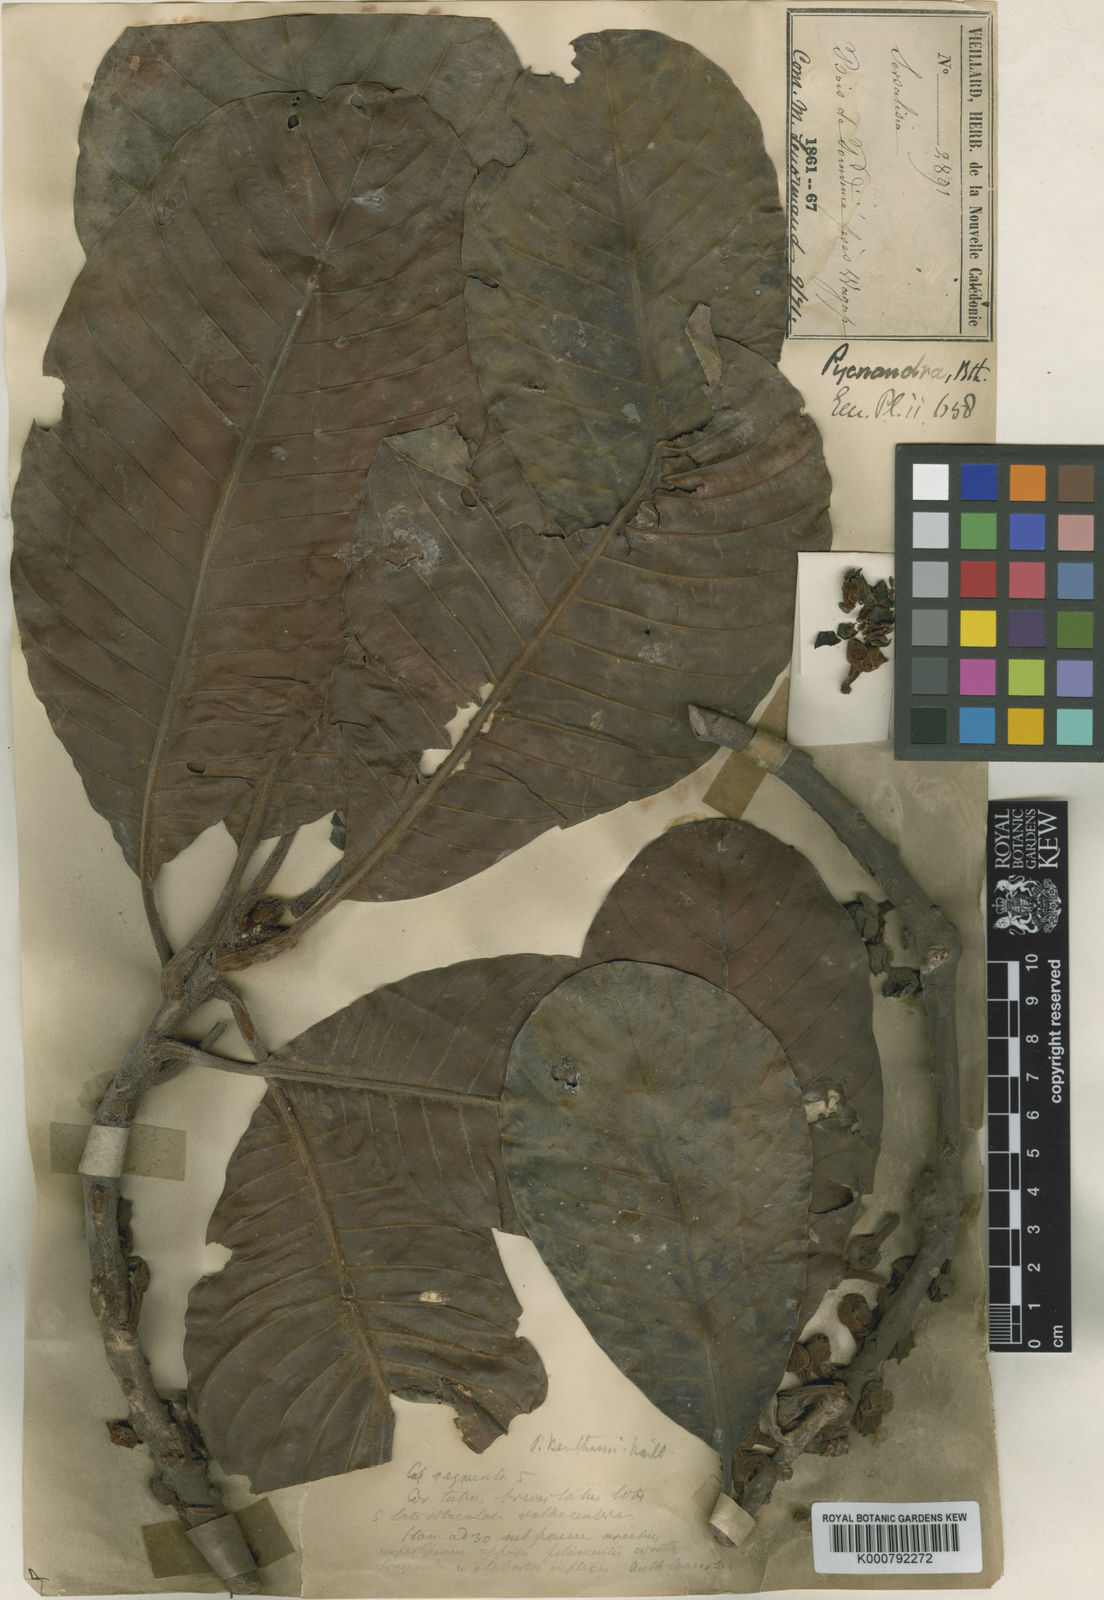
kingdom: Plantae
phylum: Tracheophyta
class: Magnoliopsida
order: Ericales
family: Sapotaceae
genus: Pycnandra
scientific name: Pycnandra benthamii
